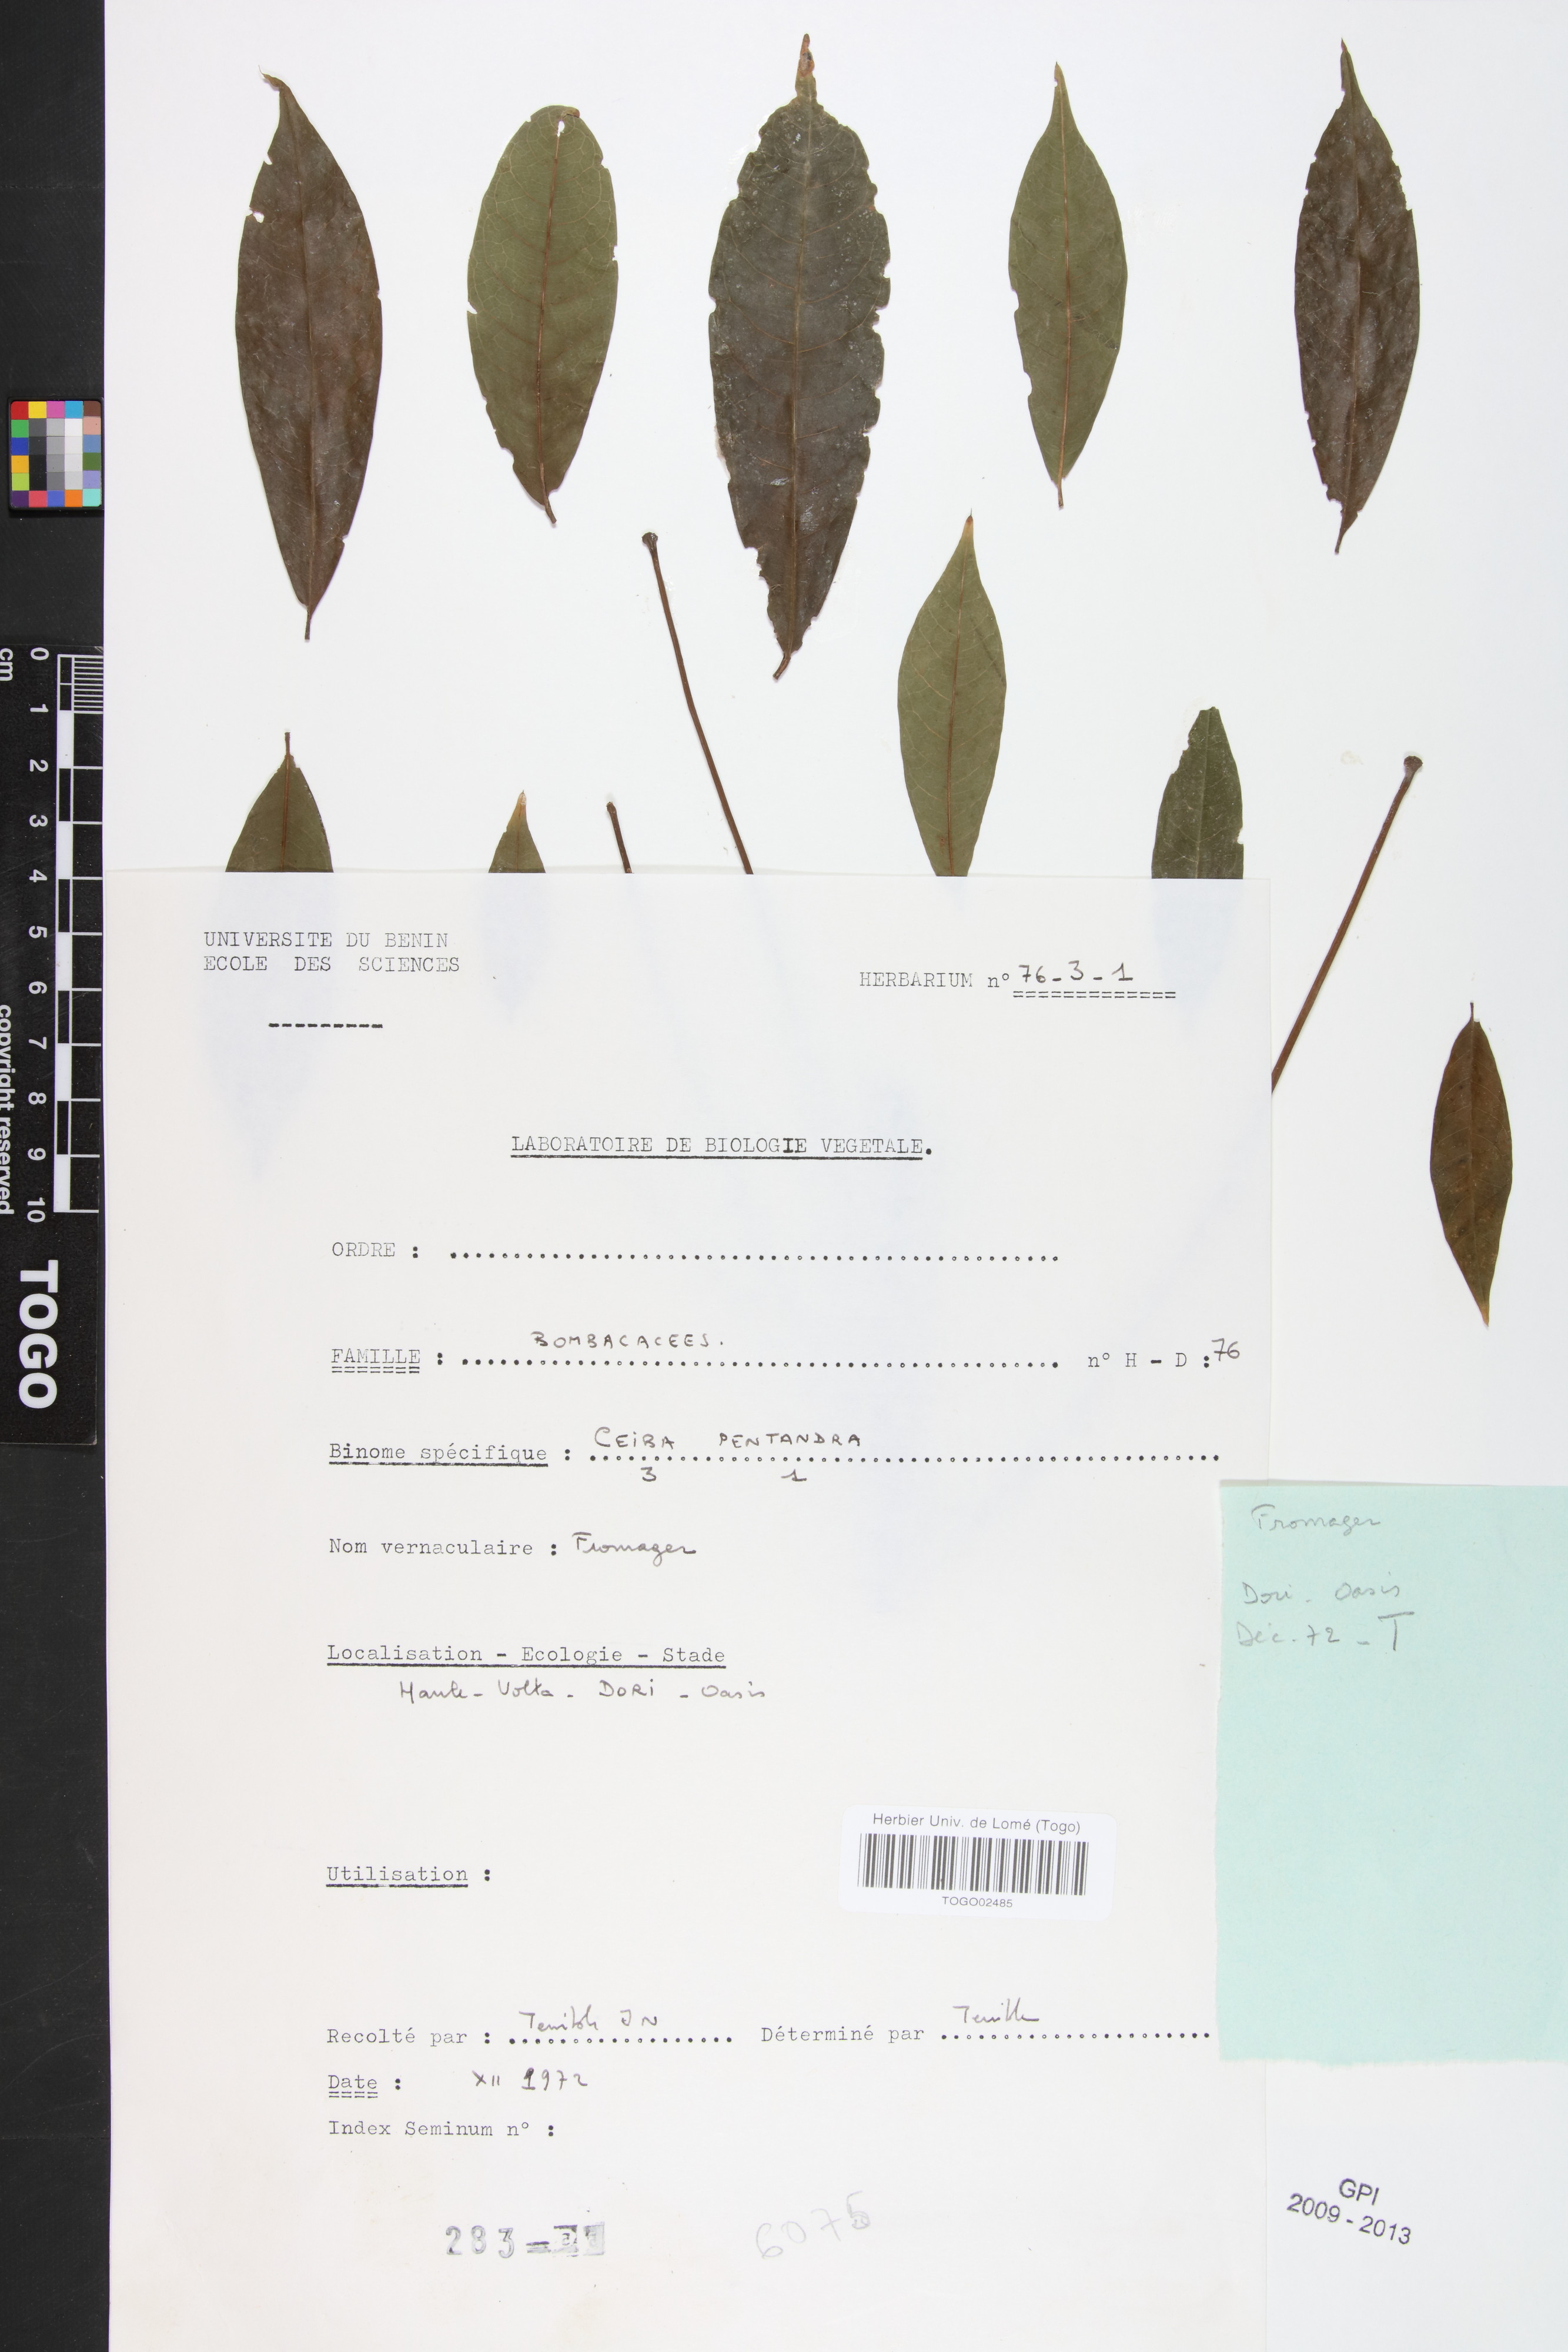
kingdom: Plantae
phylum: Tracheophyta
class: Magnoliopsida
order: Malvales
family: Malvaceae
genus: Ceiba
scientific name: Ceiba pentandra
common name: Kapok
